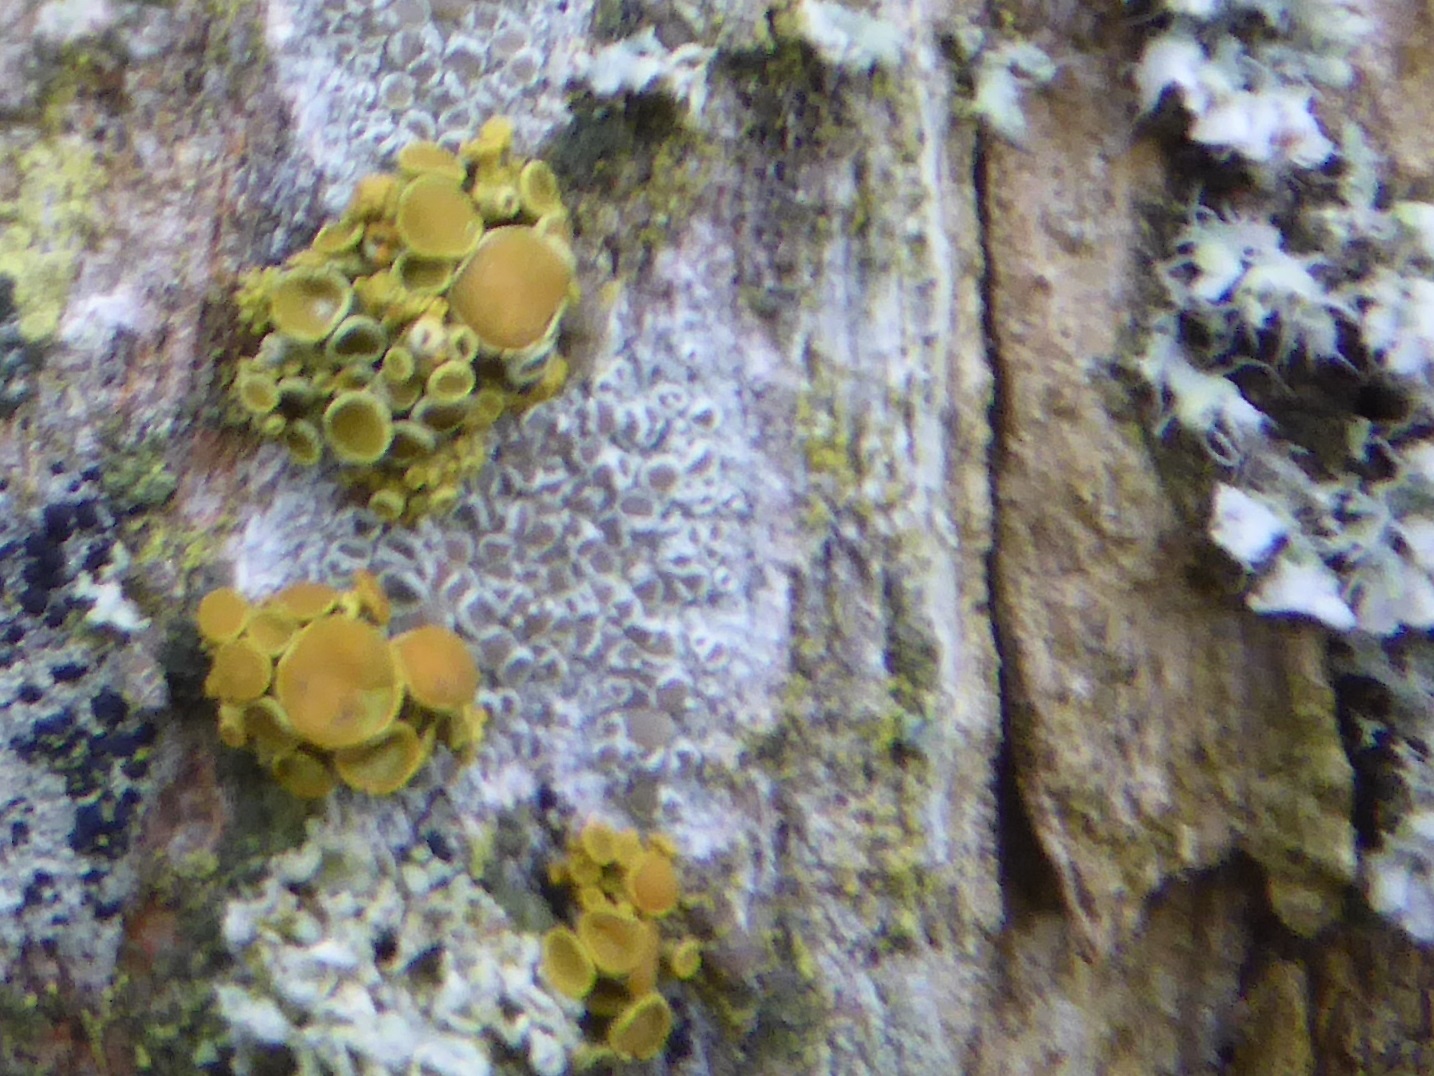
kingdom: Fungi
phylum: Ascomycota
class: Lecanoromycetes
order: Teloschistales
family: Teloschistaceae
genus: Polycauliona
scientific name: Polycauliona polycarpa
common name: mangefrugtet orangelav
